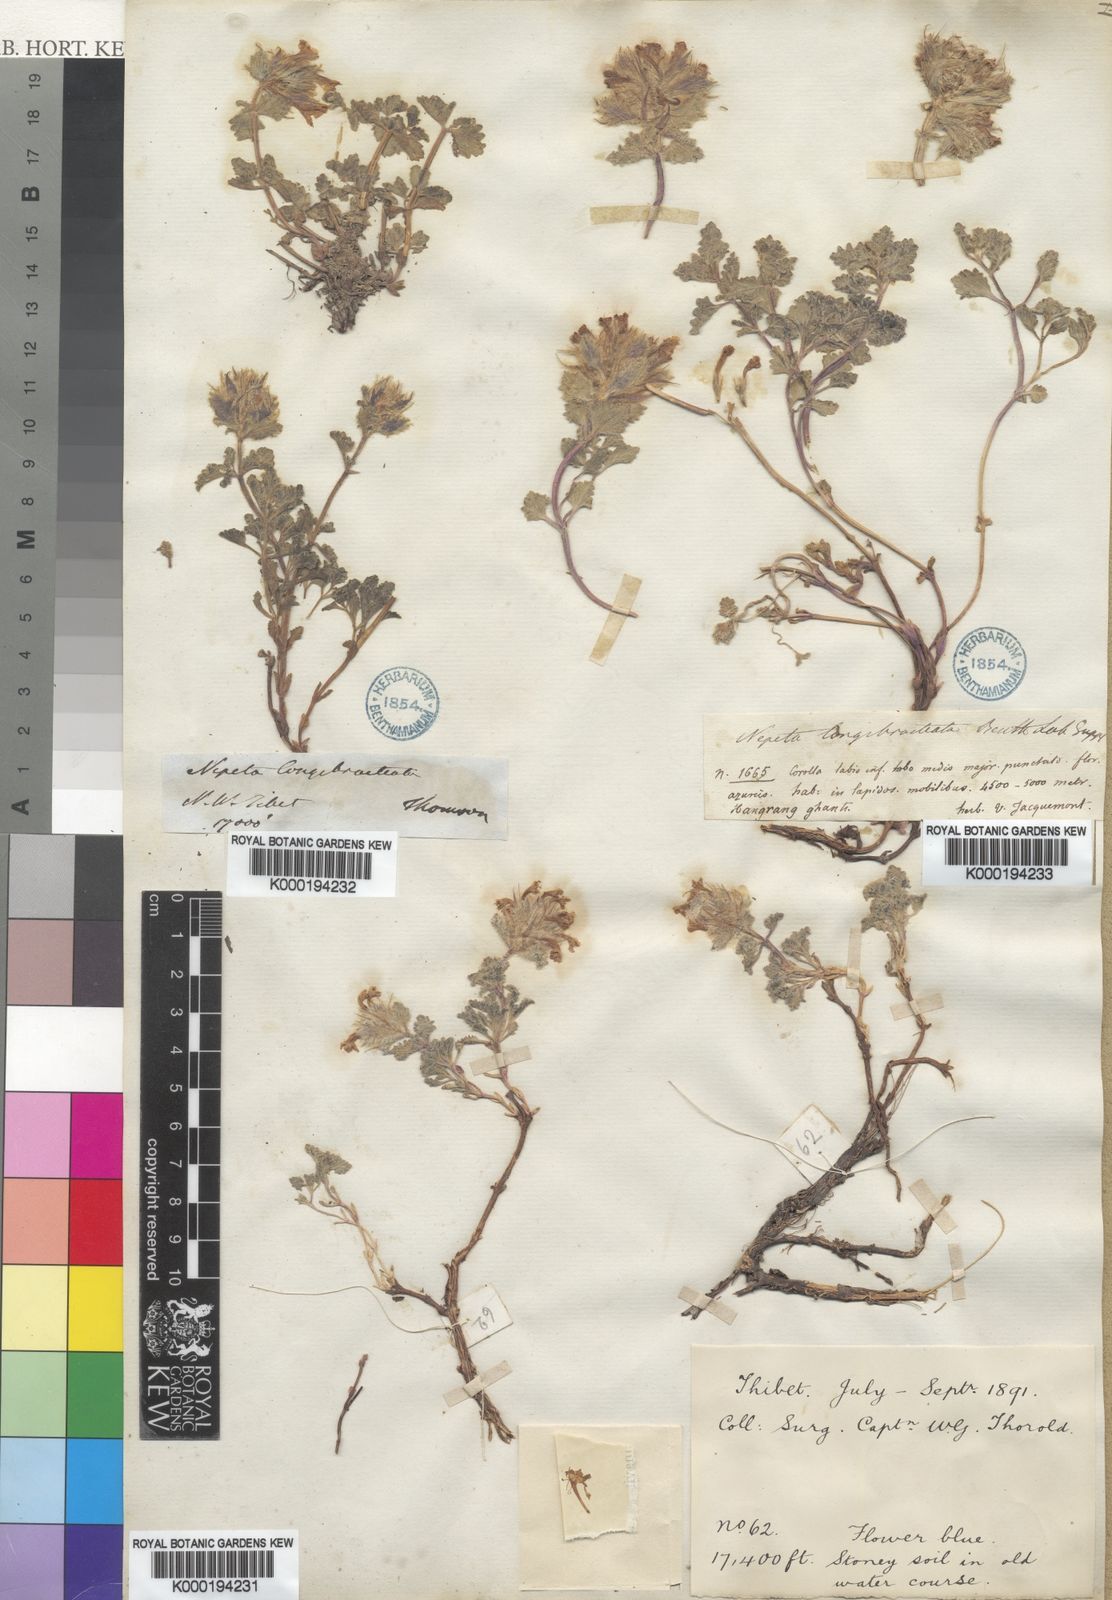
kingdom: Plantae
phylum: Tracheophyta
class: Magnoliopsida
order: Lamiales
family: Lamiaceae
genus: Nepeta
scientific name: Nepeta longibracteata
